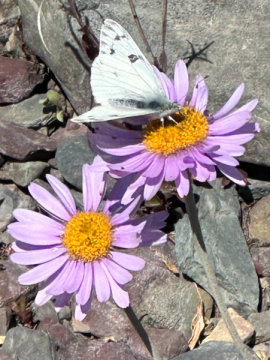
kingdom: Animalia
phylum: Arthropoda
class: Insecta
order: Lepidoptera
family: Pieridae
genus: Pontia
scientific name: Pontia occidentalis
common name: Western White
